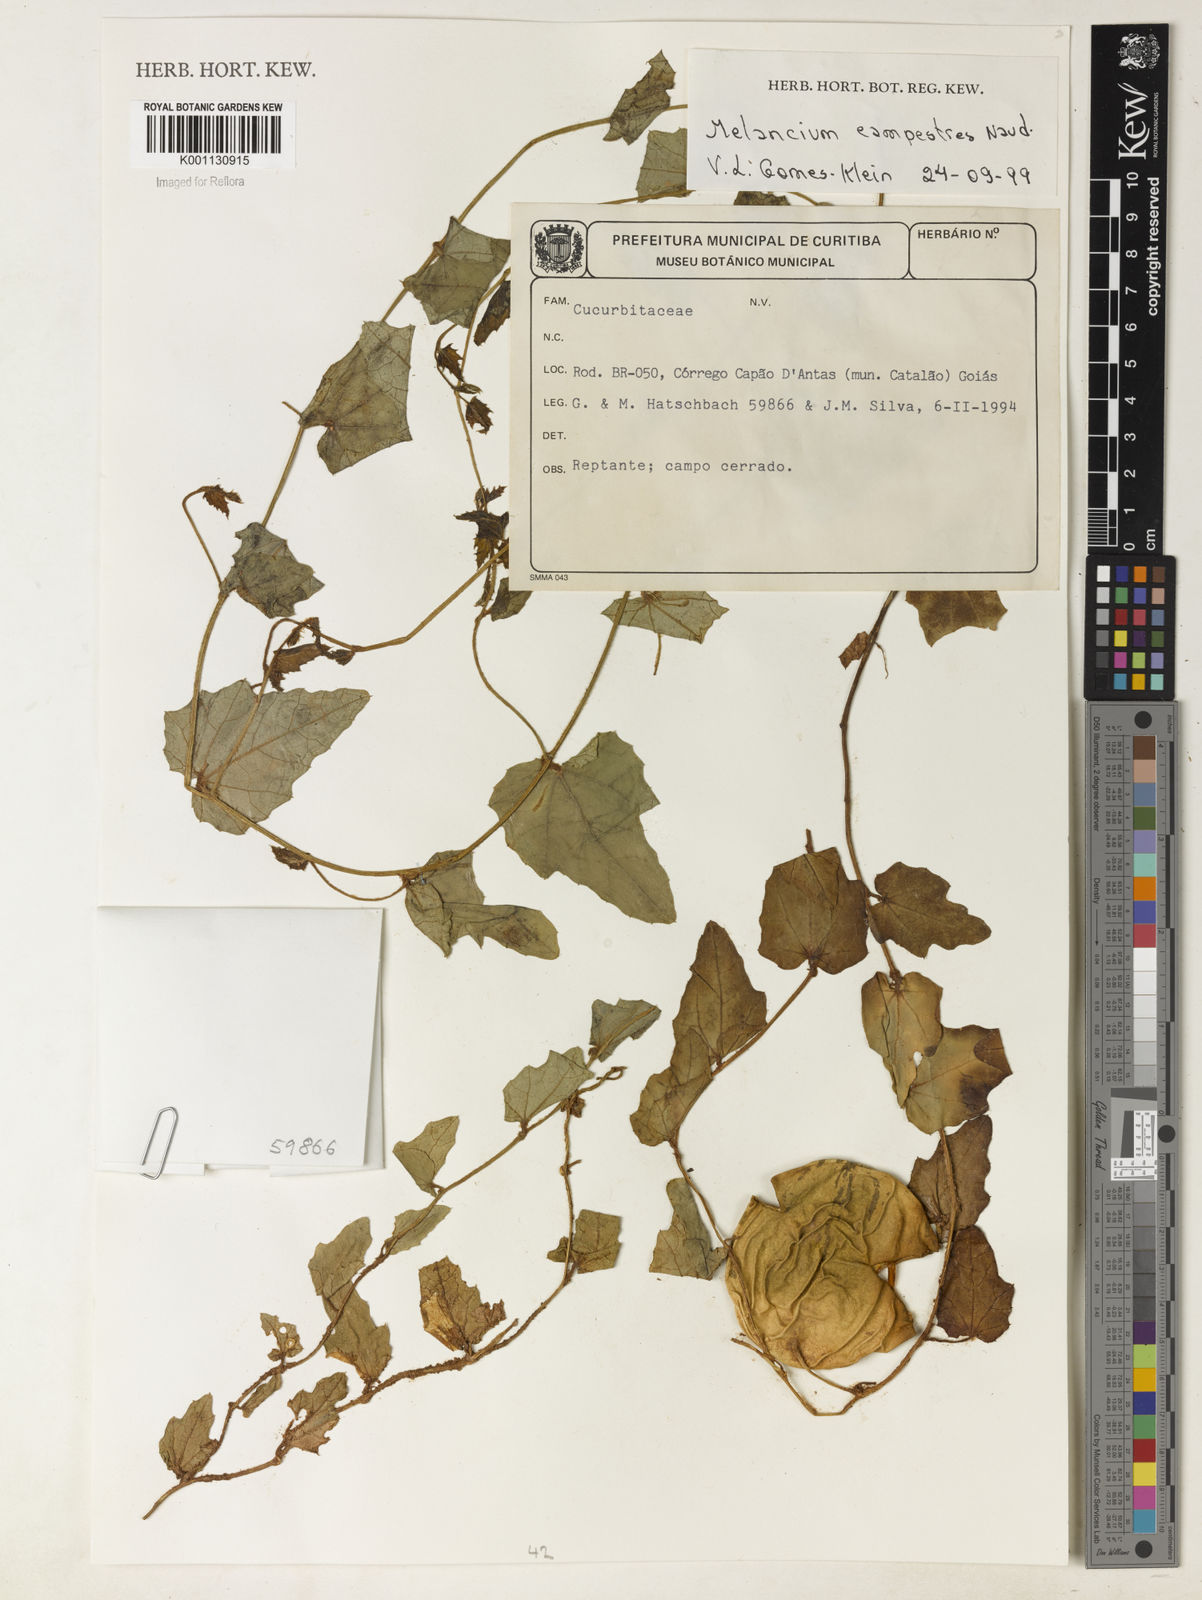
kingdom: Plantae
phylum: Tracheophyta
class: Magnoliopsida
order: Cucurbitales
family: Cucurbitaceae
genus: Melothria
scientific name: Melothria campestris
